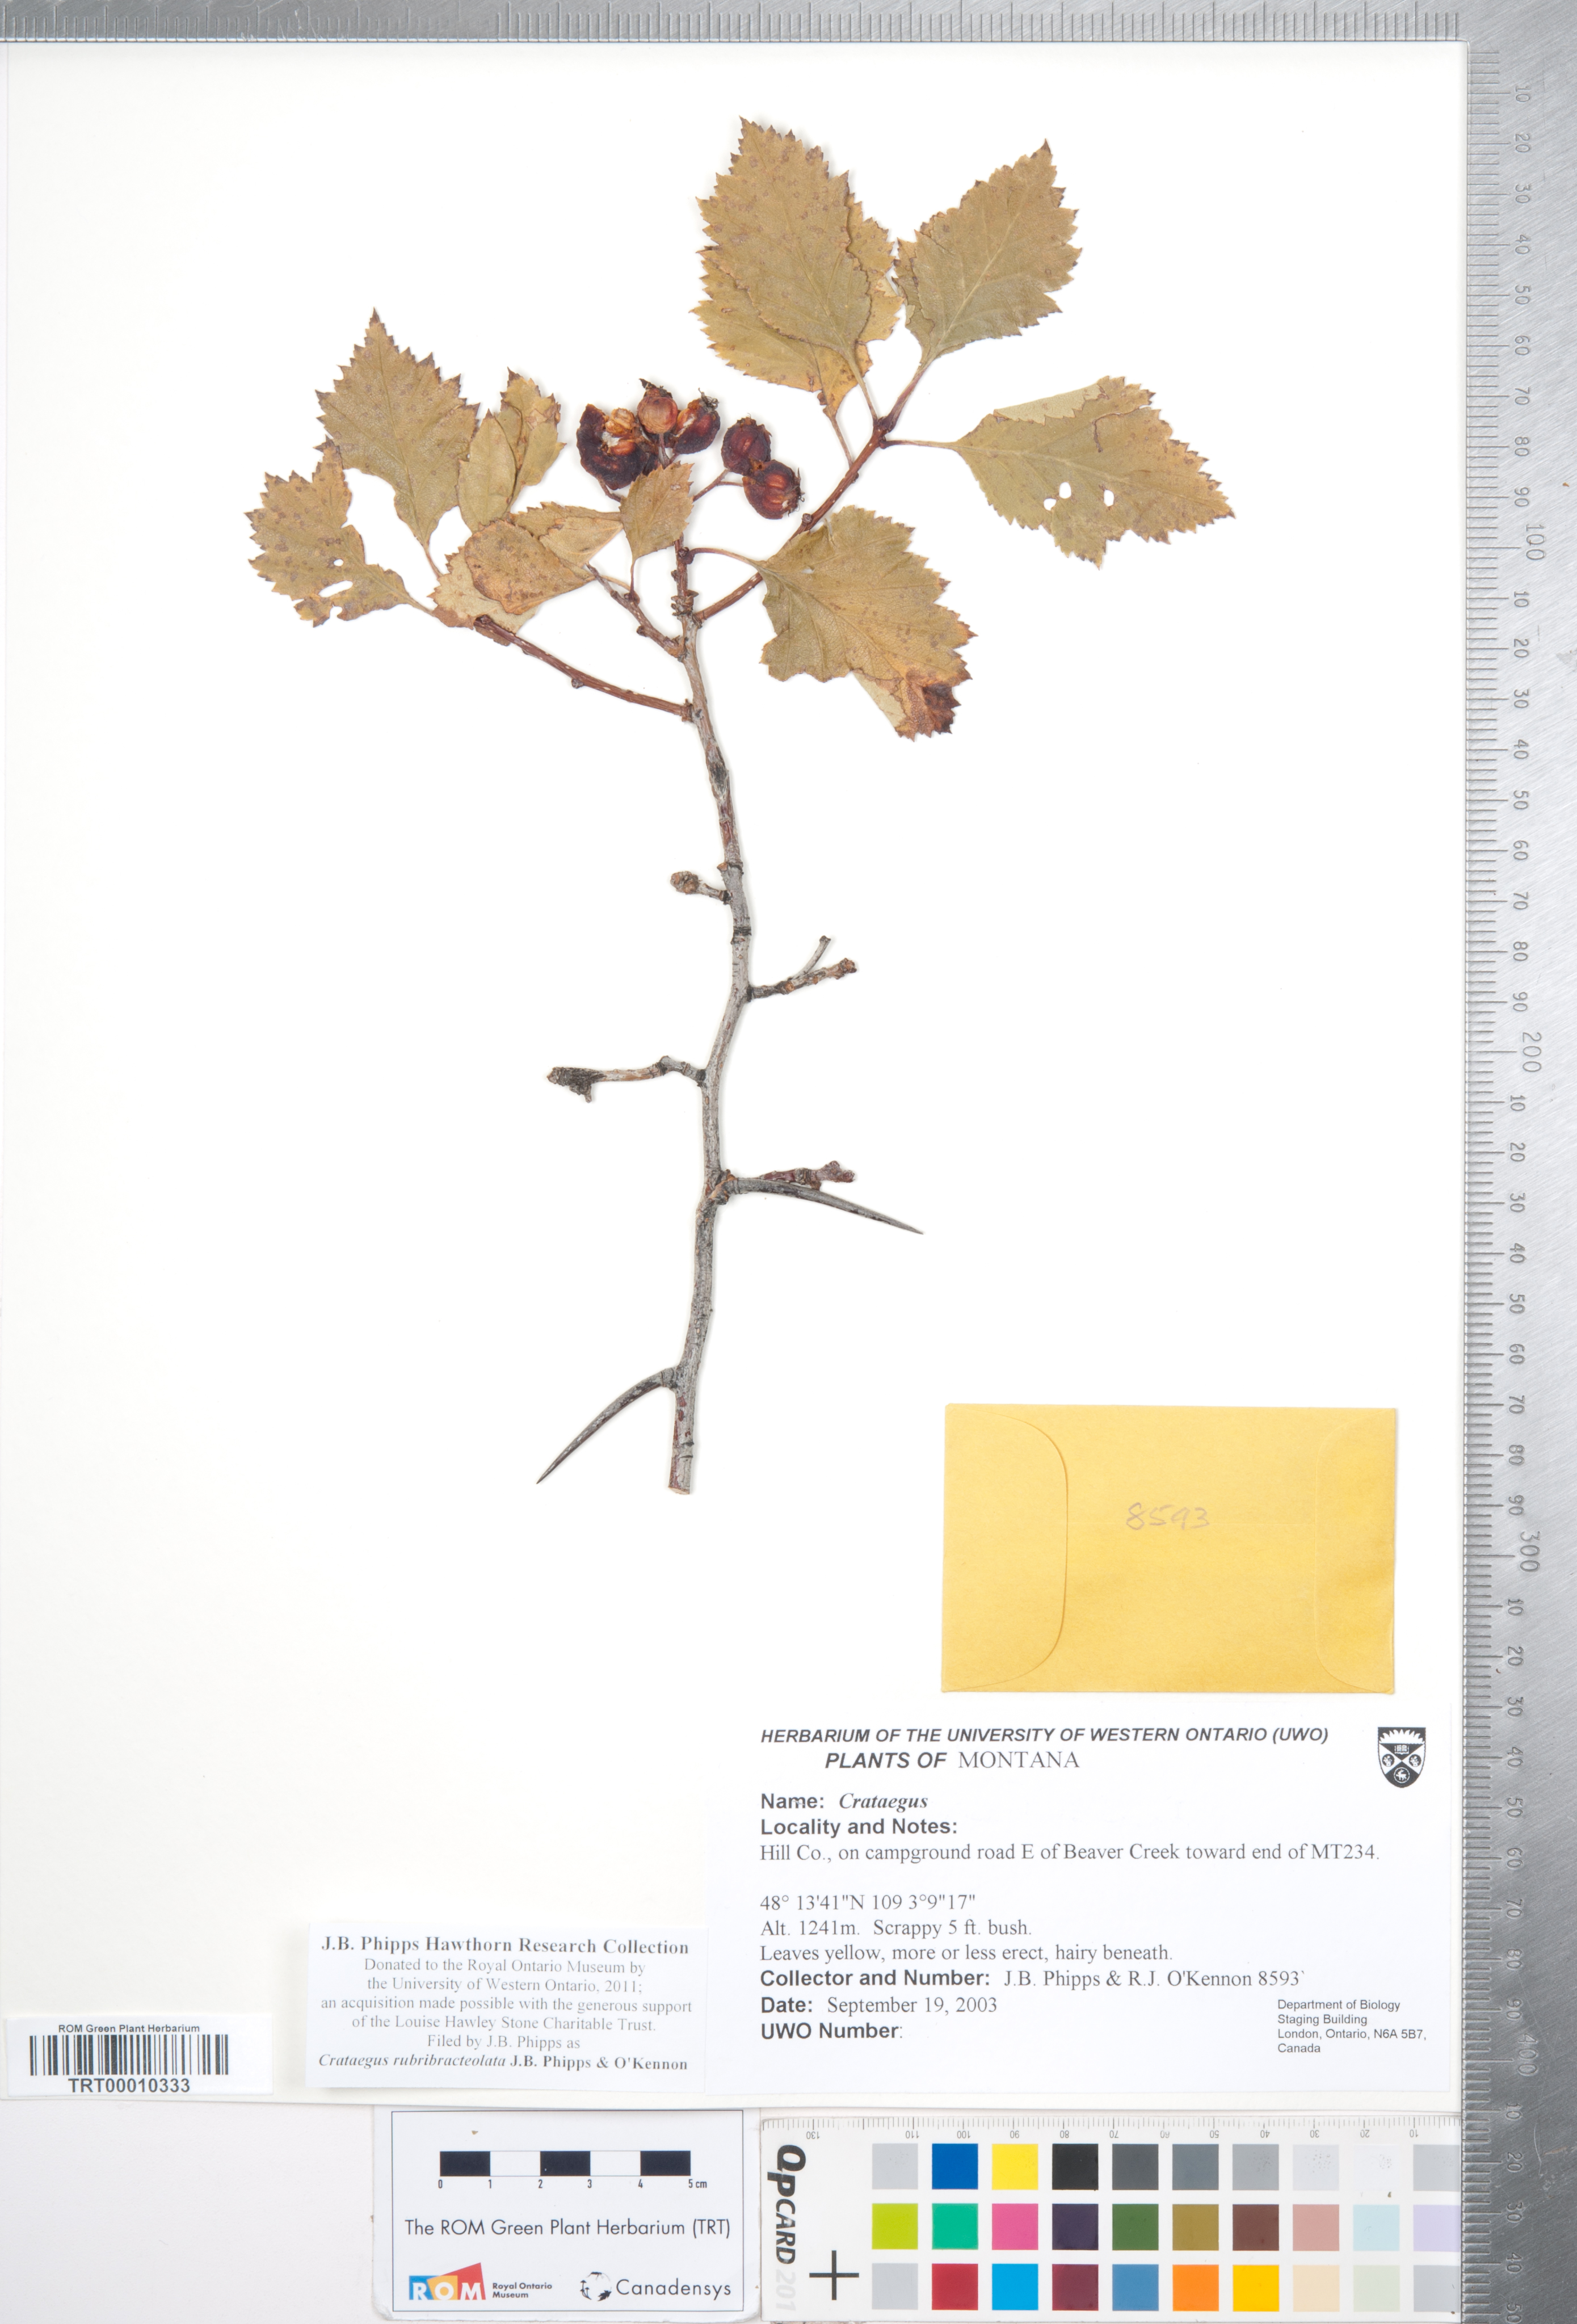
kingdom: Plantae
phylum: Tracheophyta
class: Magnoliopsida
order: Rosales
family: Rosaceae
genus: Crataegus
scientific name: Crataegus rubribracteolata
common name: Red bracteole hawthorn
